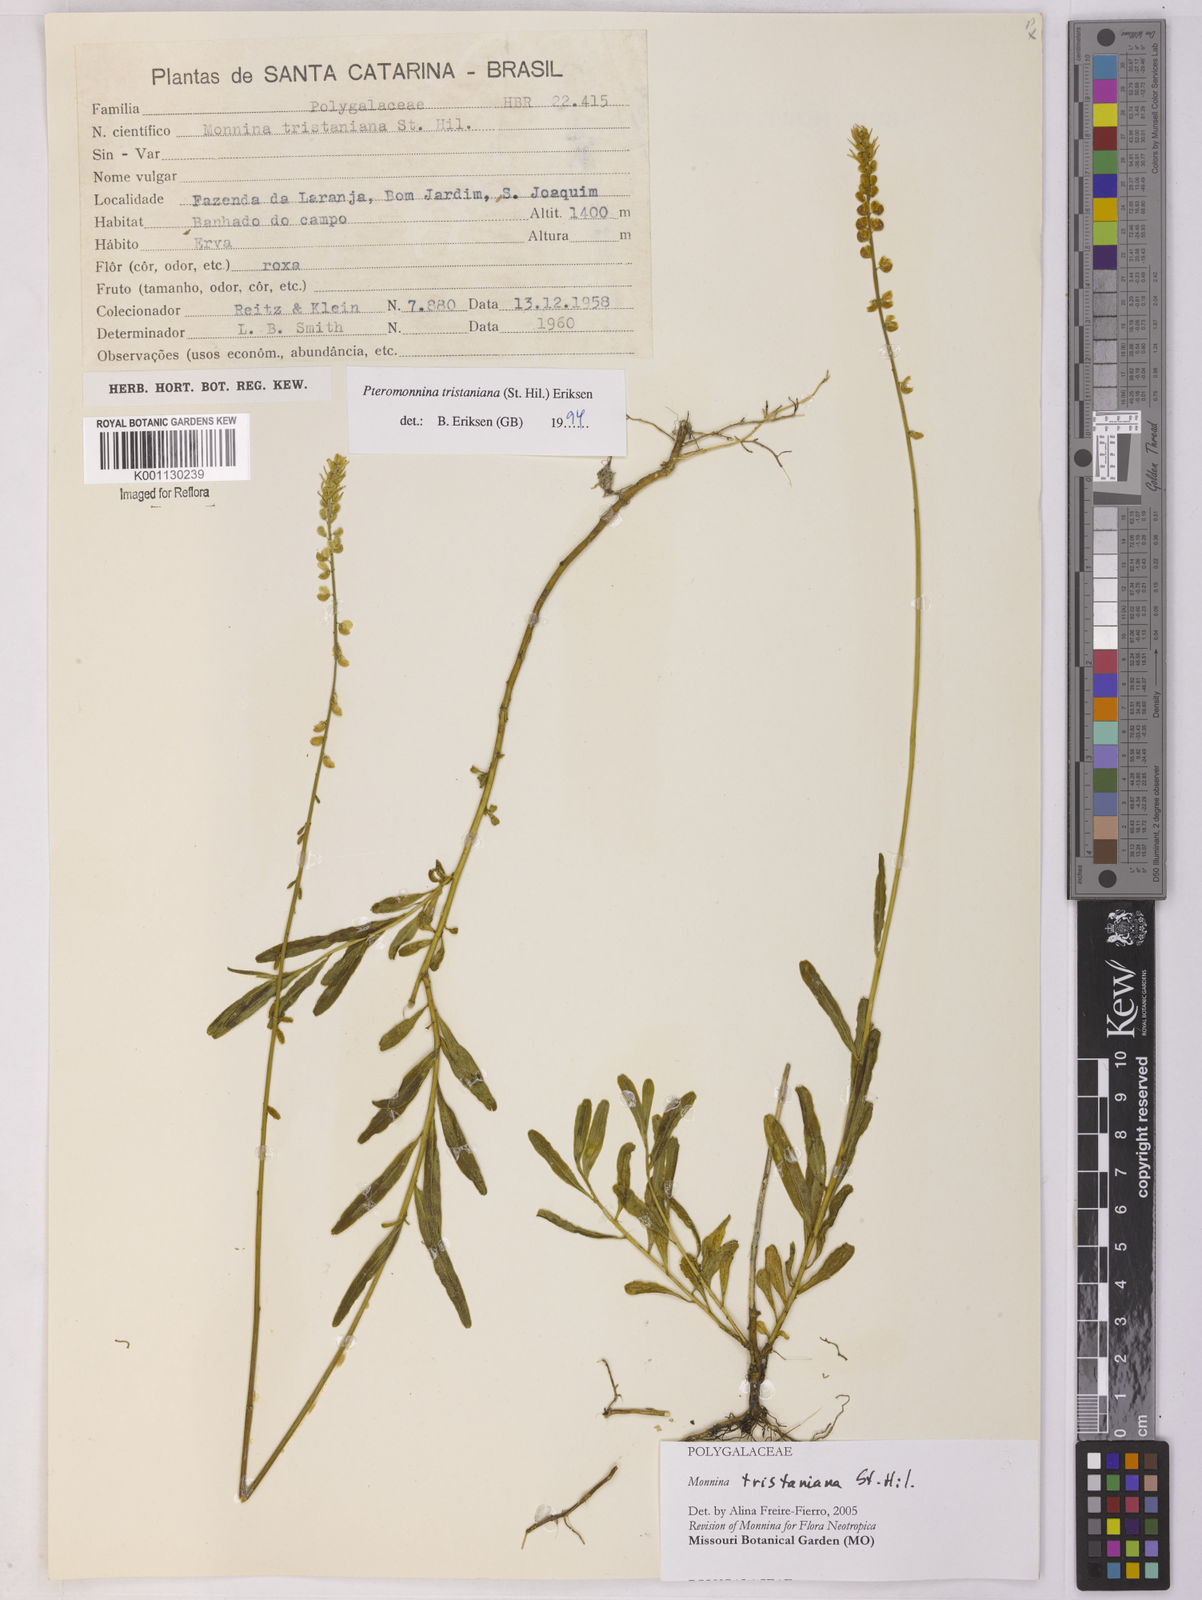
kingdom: Plantae
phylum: Tracheophyta
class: Magnoliopsida
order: Fabales
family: Polygalaceae
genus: Monnina
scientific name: Monnina tristaniana
